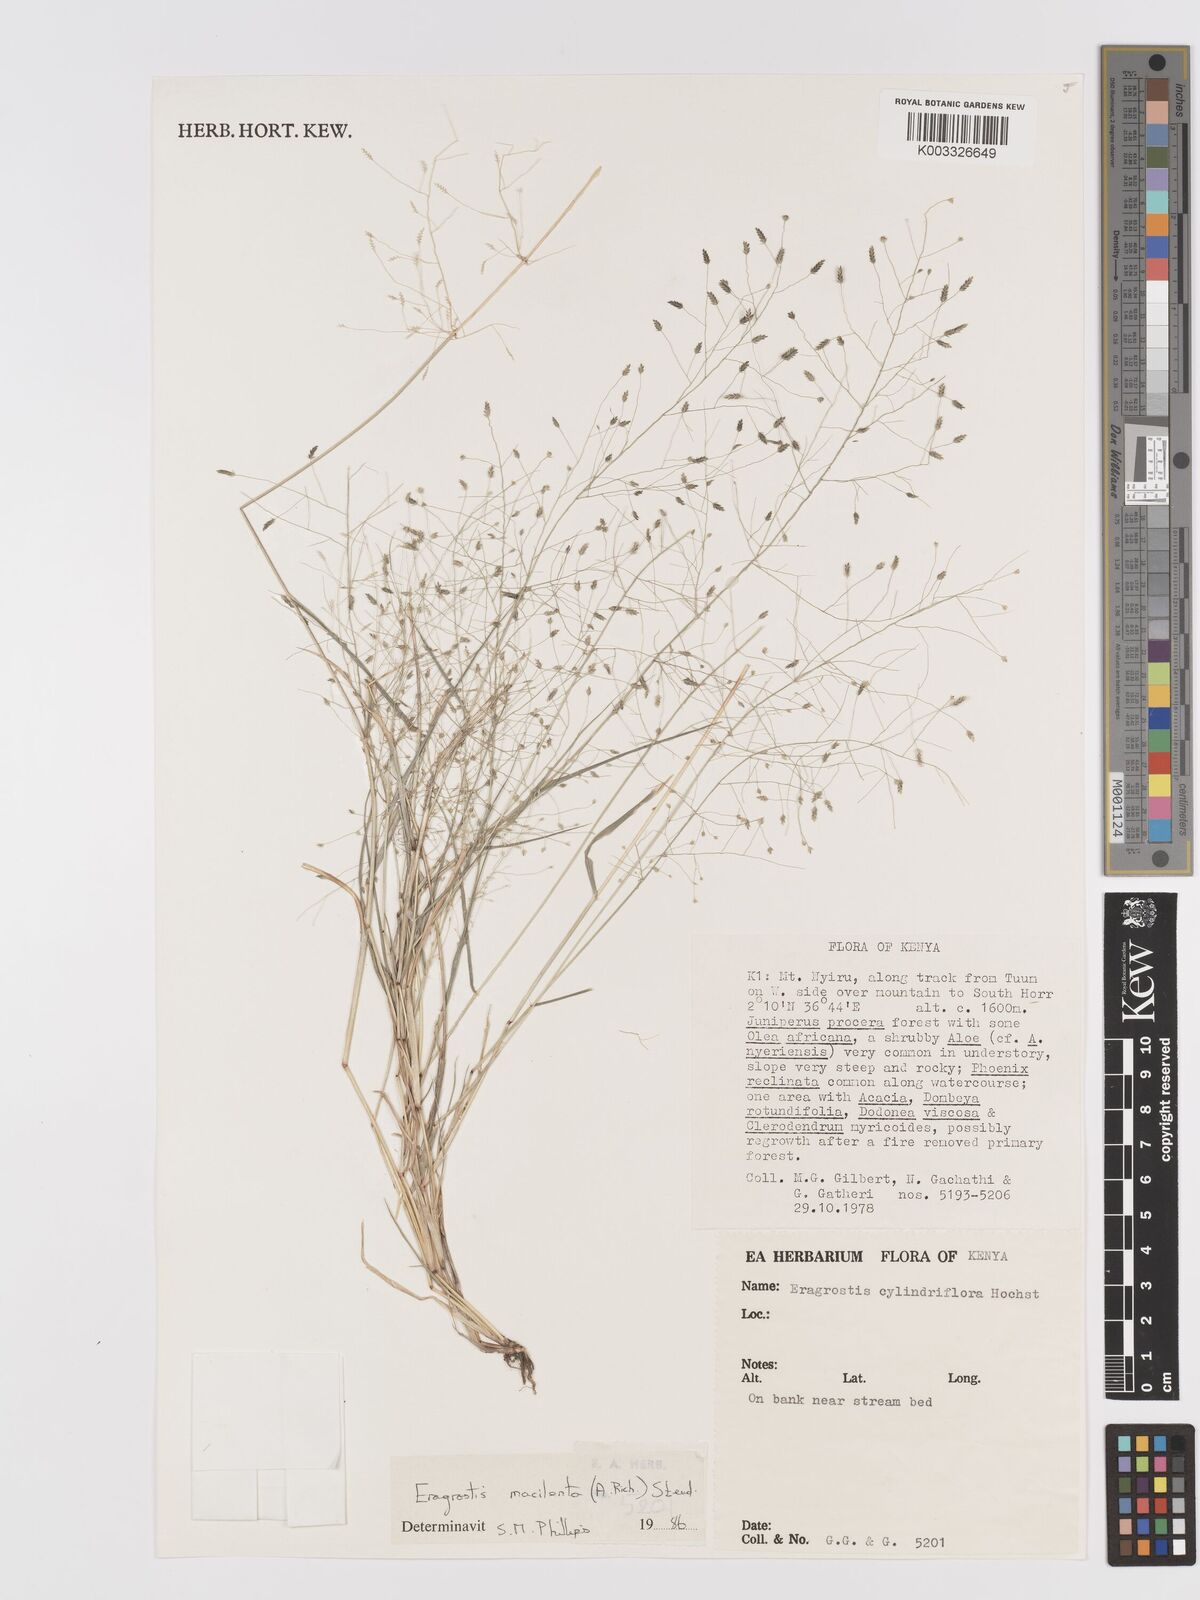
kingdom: Plantae
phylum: Tracheophyta
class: Liliopsida
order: Poales
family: Poaceae
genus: Eragrostis
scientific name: Eragrostis macilenta
